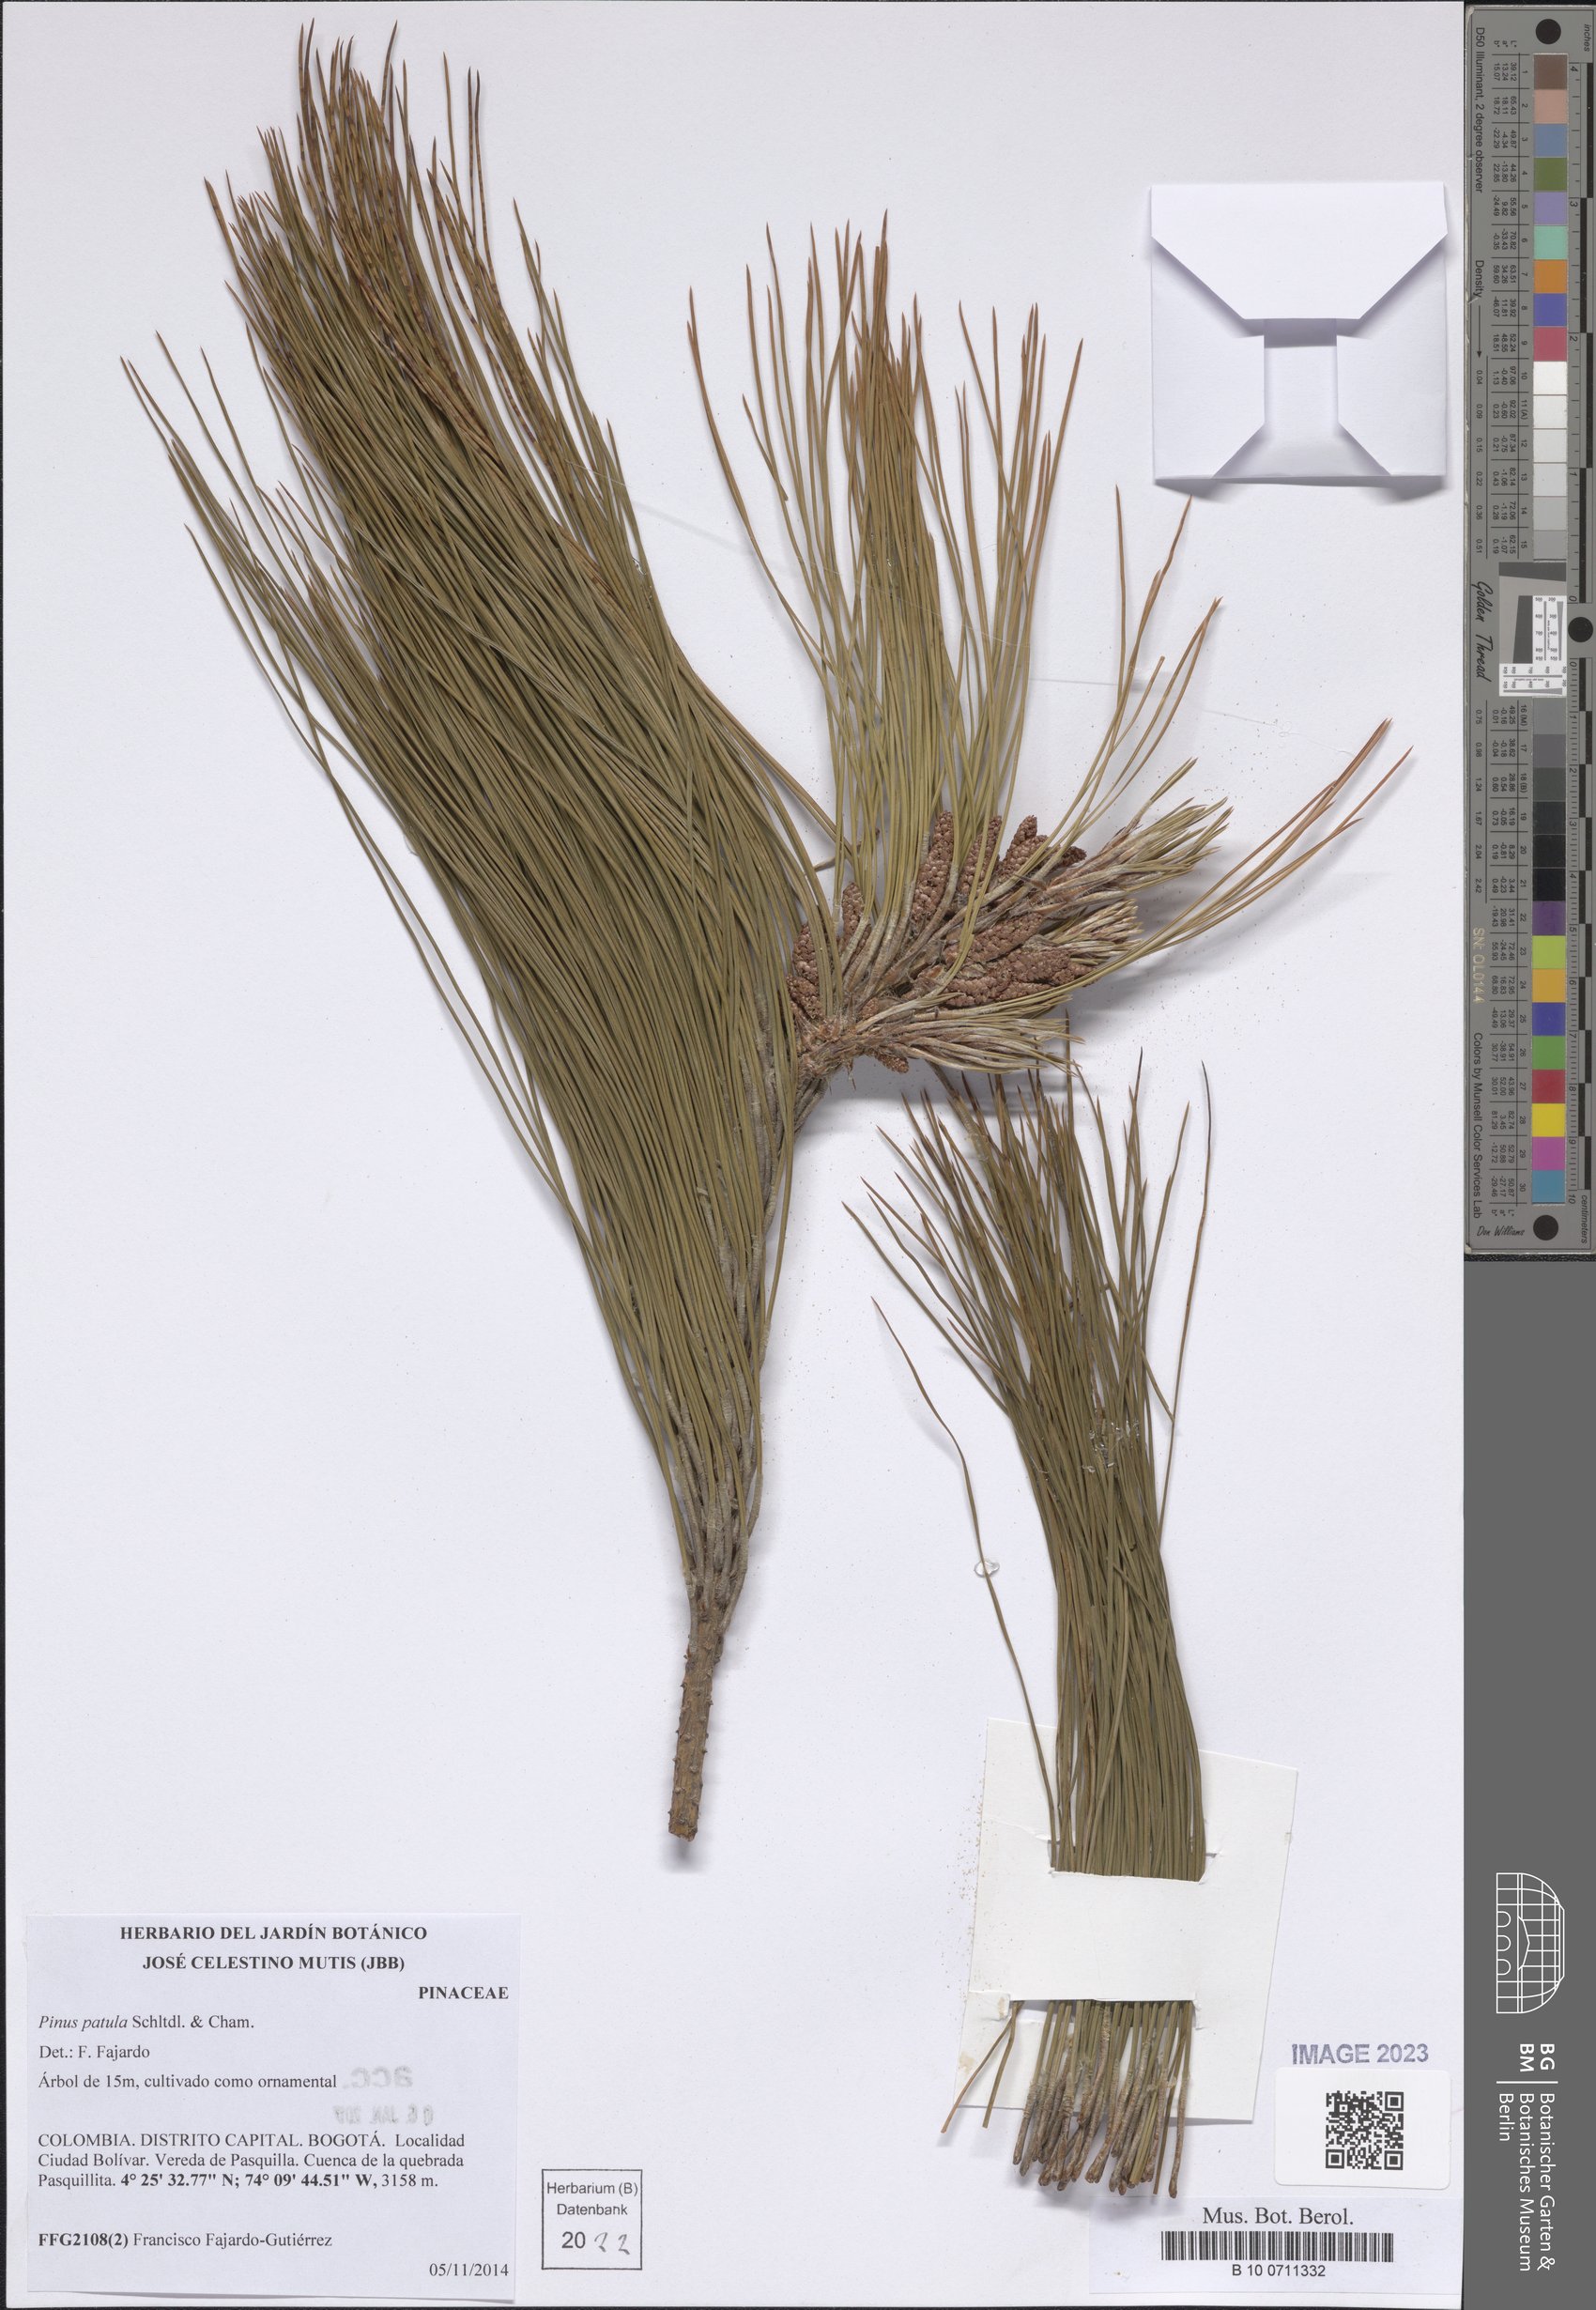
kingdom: Plantae
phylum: Tracheophyta
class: Pinopsida
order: Pinales
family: Pinaceae
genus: Pinus
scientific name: Pinus patula
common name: Mexican weeping pine
